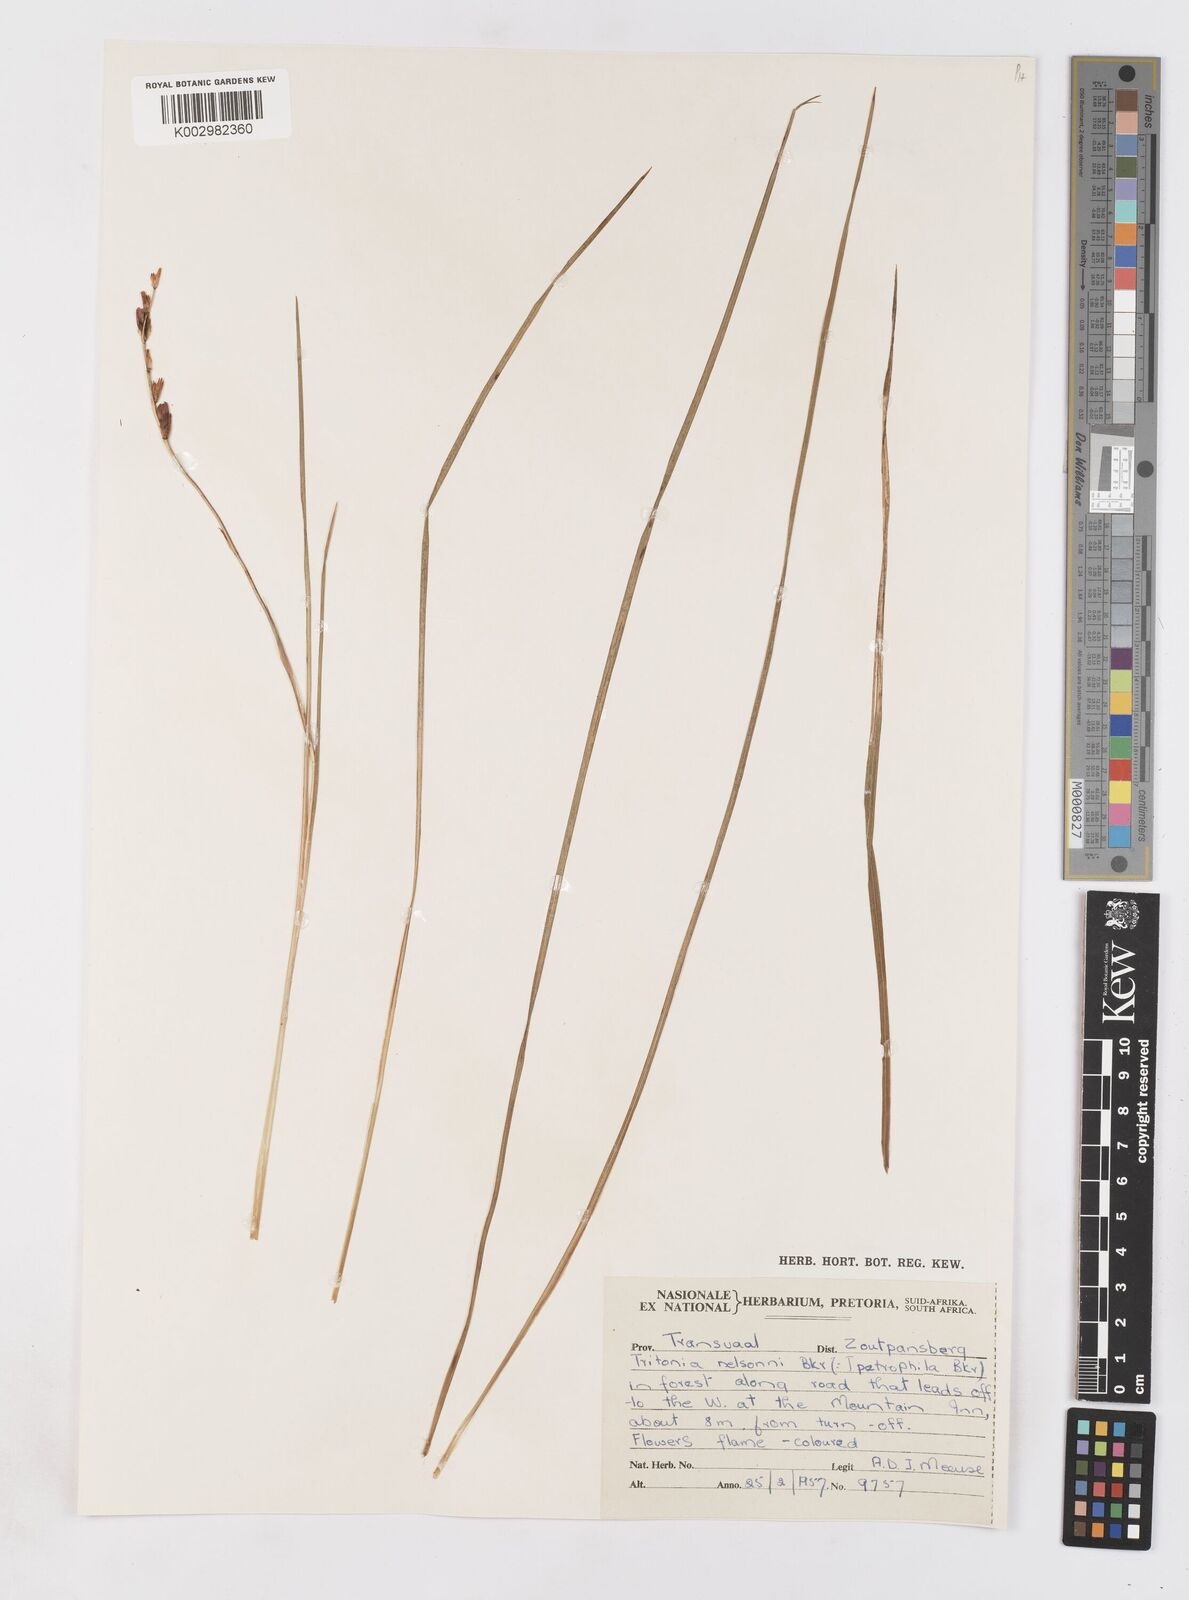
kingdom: Plantae
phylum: Tracheophyta
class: Liliopsida
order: Asparagales
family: Iridaceae
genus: Tritonia
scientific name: Tritonia nelsonii
